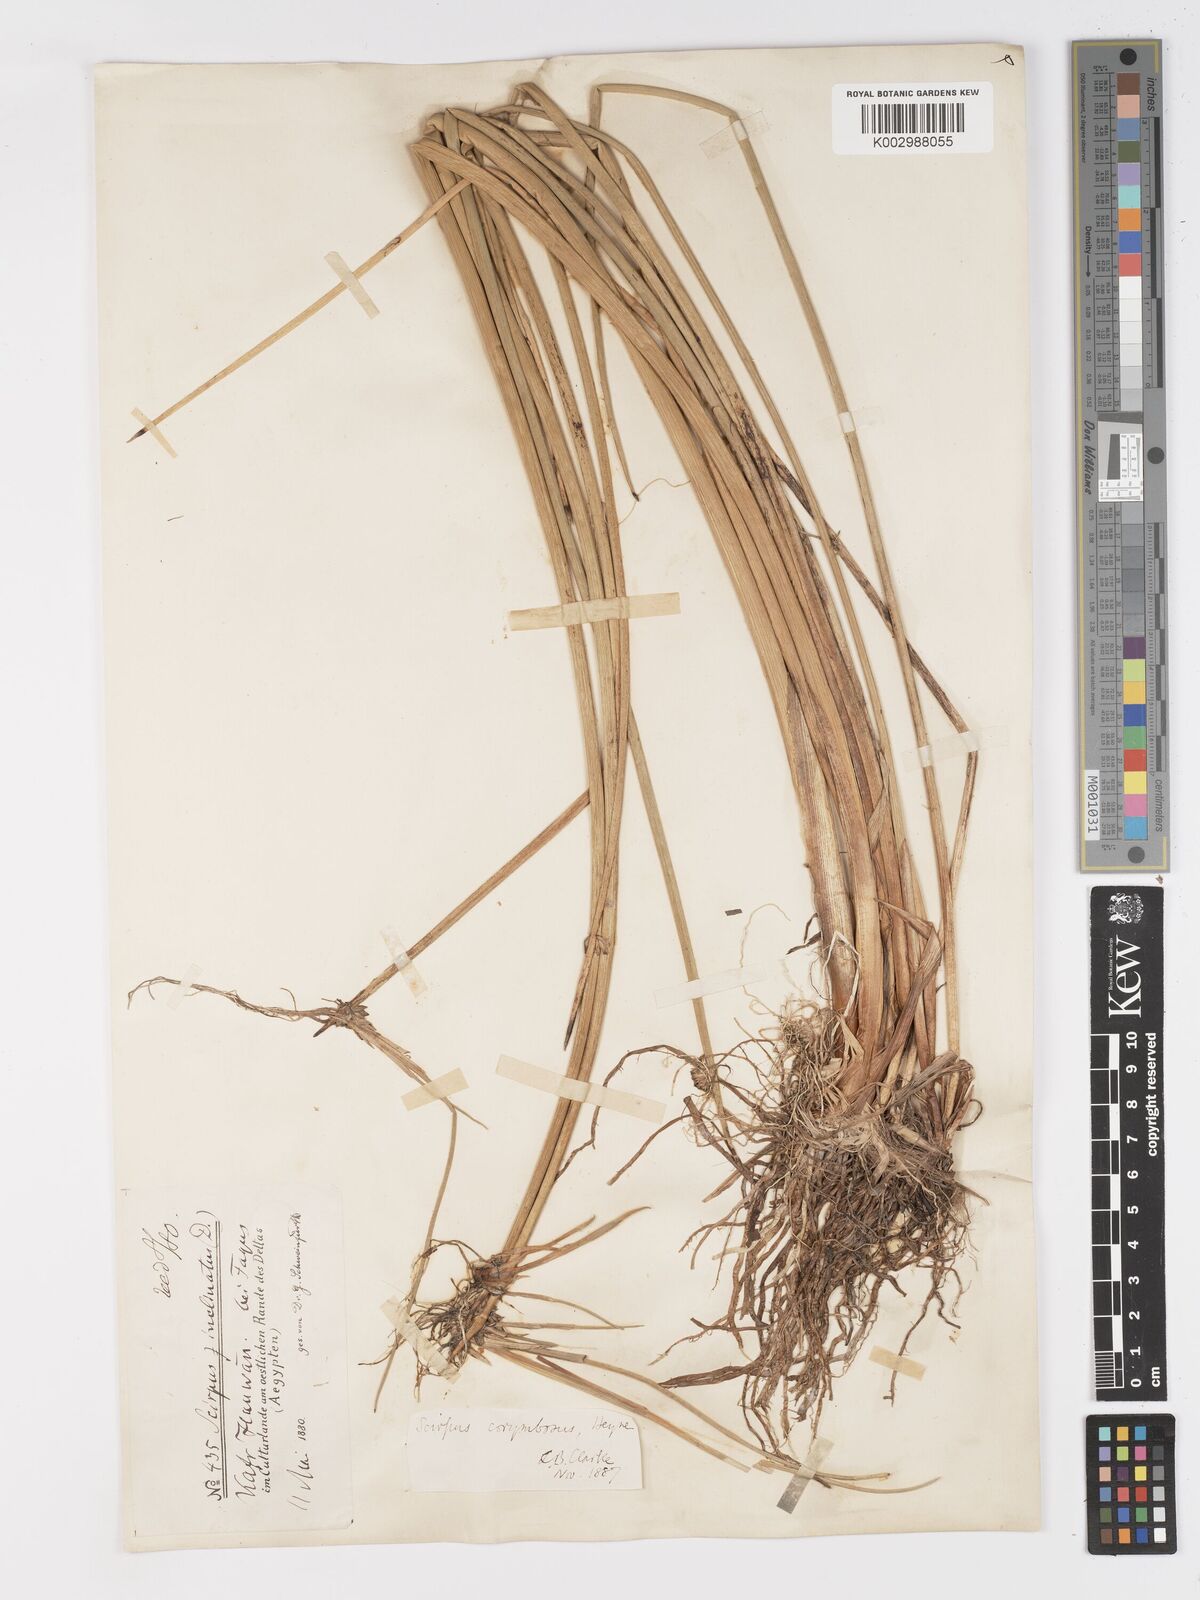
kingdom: Plantae
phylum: Tracheophyta
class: Liliopsida
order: Poales
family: Cyperaceae
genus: Schoenoplectiella
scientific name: Schoenoplectiella corymbosa
